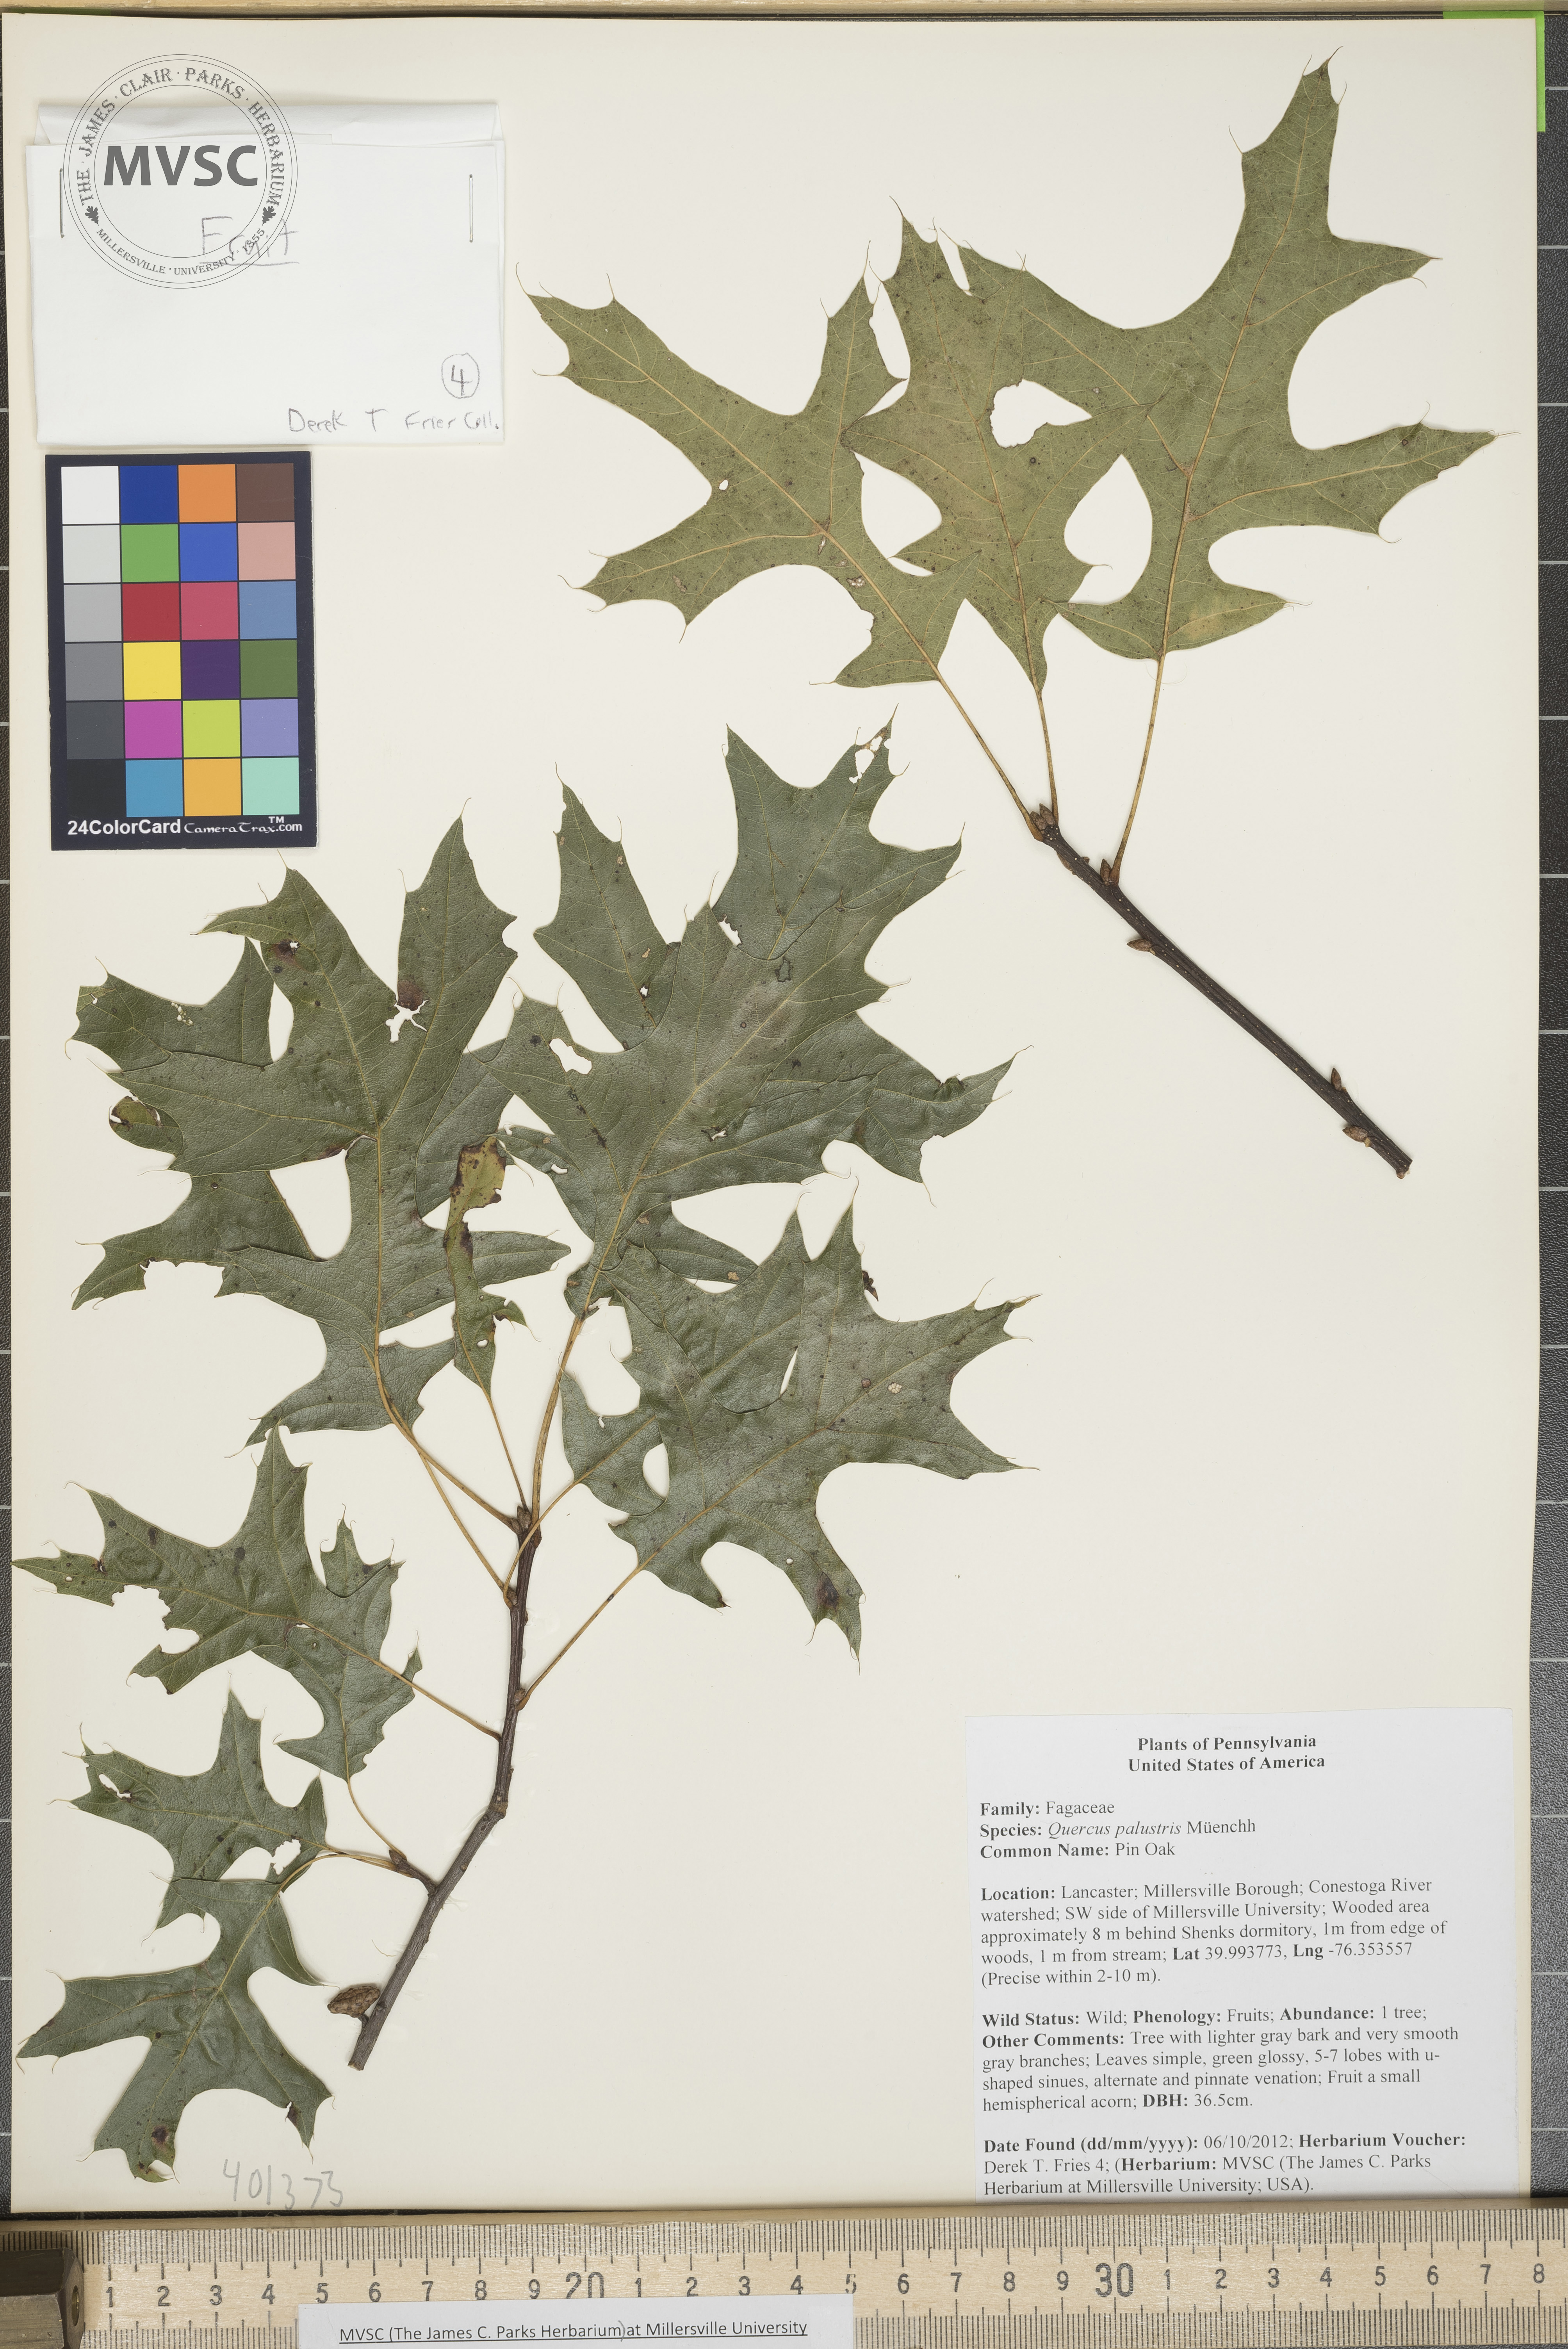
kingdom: Plantae
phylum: Tracheophyta
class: Magnoliopsida
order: Fagales
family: Fagaceae
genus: Quercus
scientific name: Quercus palustris
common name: Pin Oak
